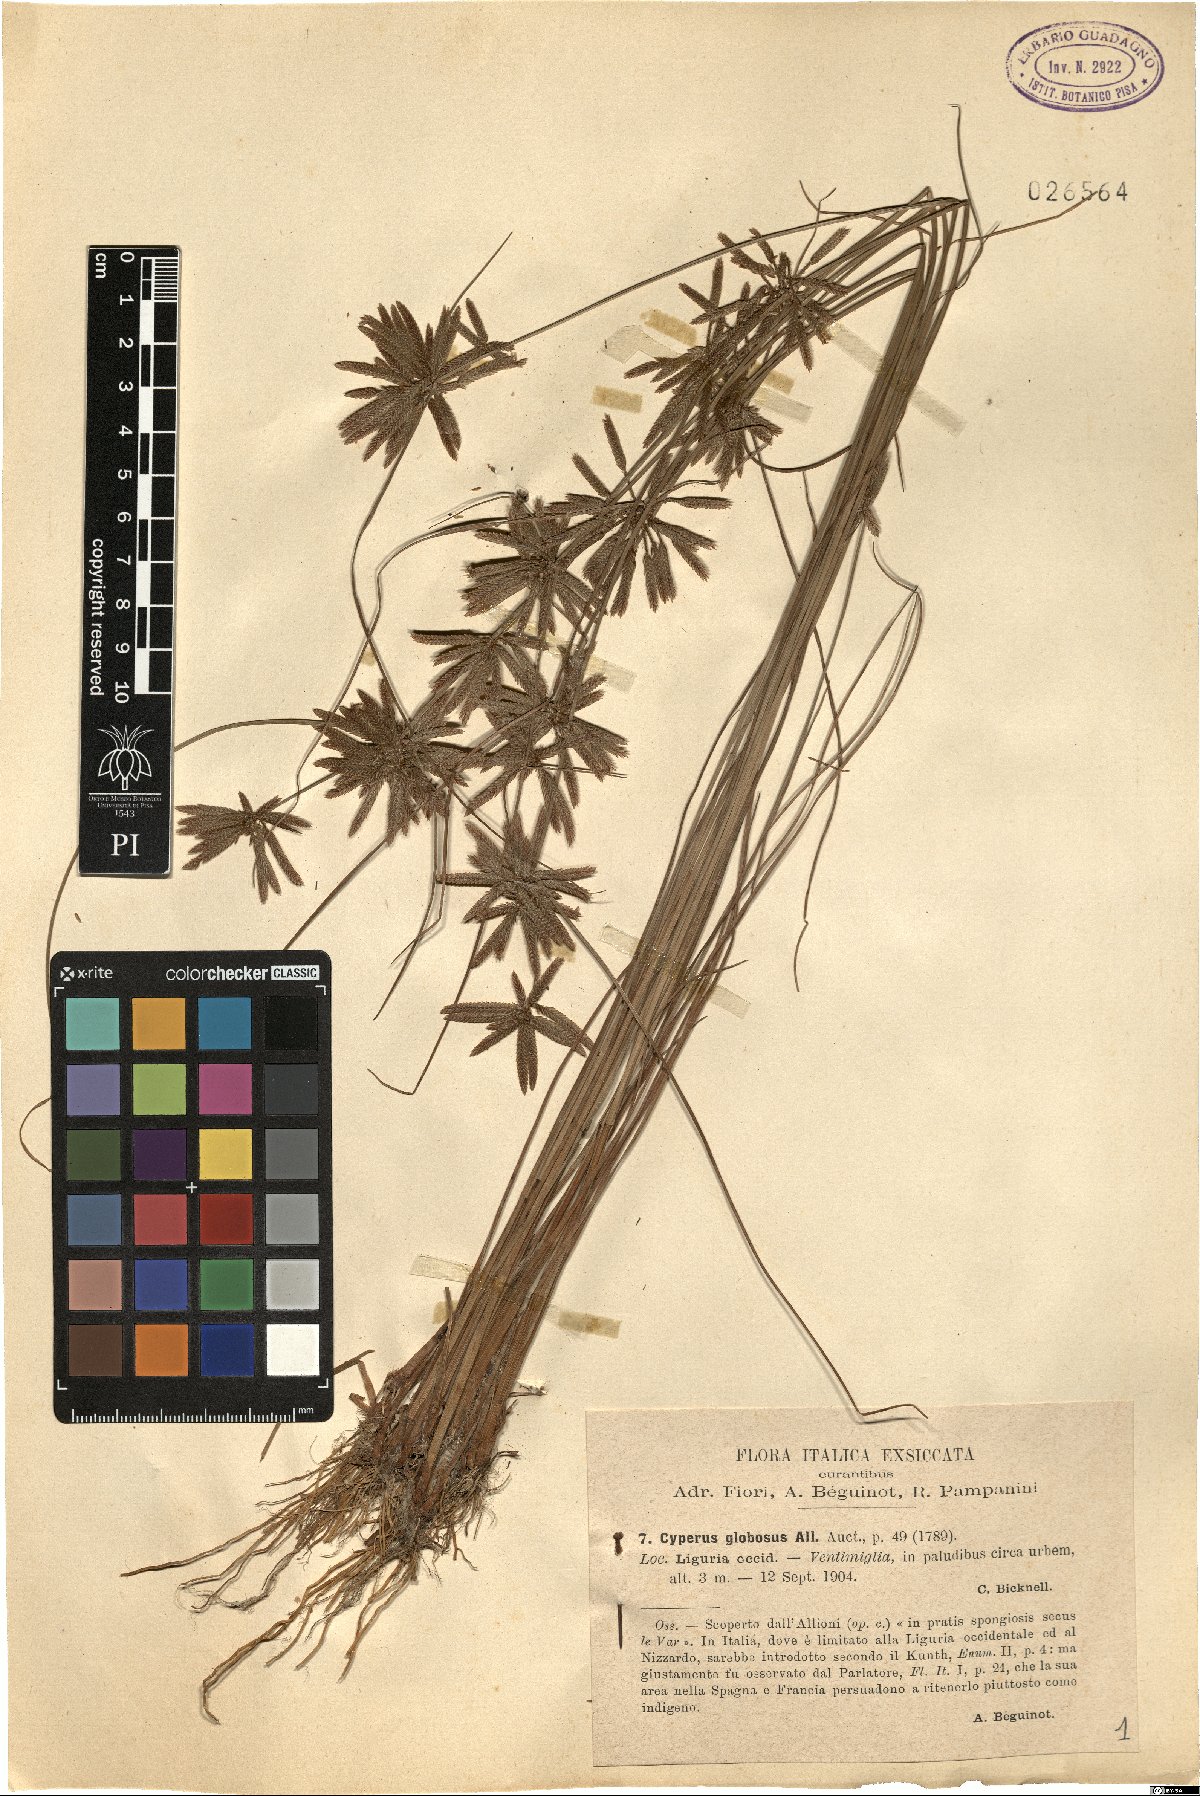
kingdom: Plantae
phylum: Tracheophyta
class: Liliopsida
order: Poales
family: Cyperaceae
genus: Cyperus
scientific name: Cyperus flavidus
